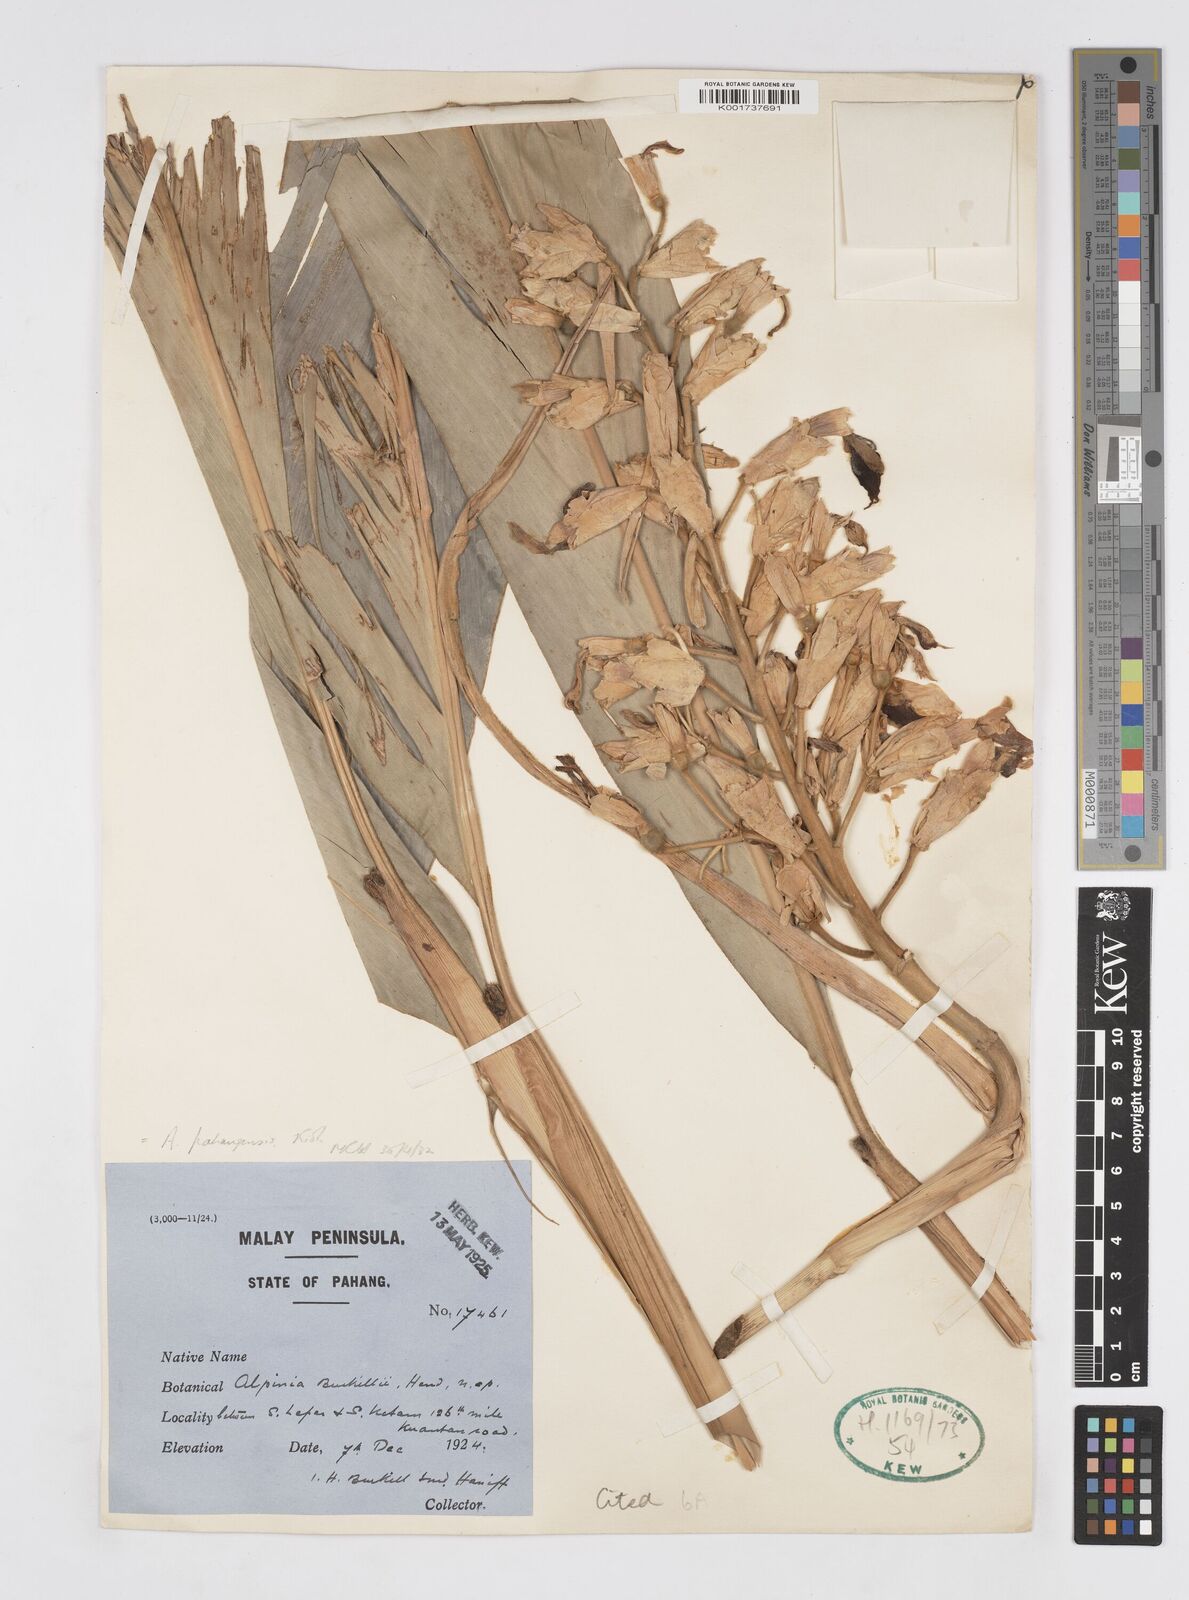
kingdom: Plantae
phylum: Tracheophyta
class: Liliopsida
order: Zingiberales
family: Zingiberaceae
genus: Alpinia
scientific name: Alpinia pahangensis
